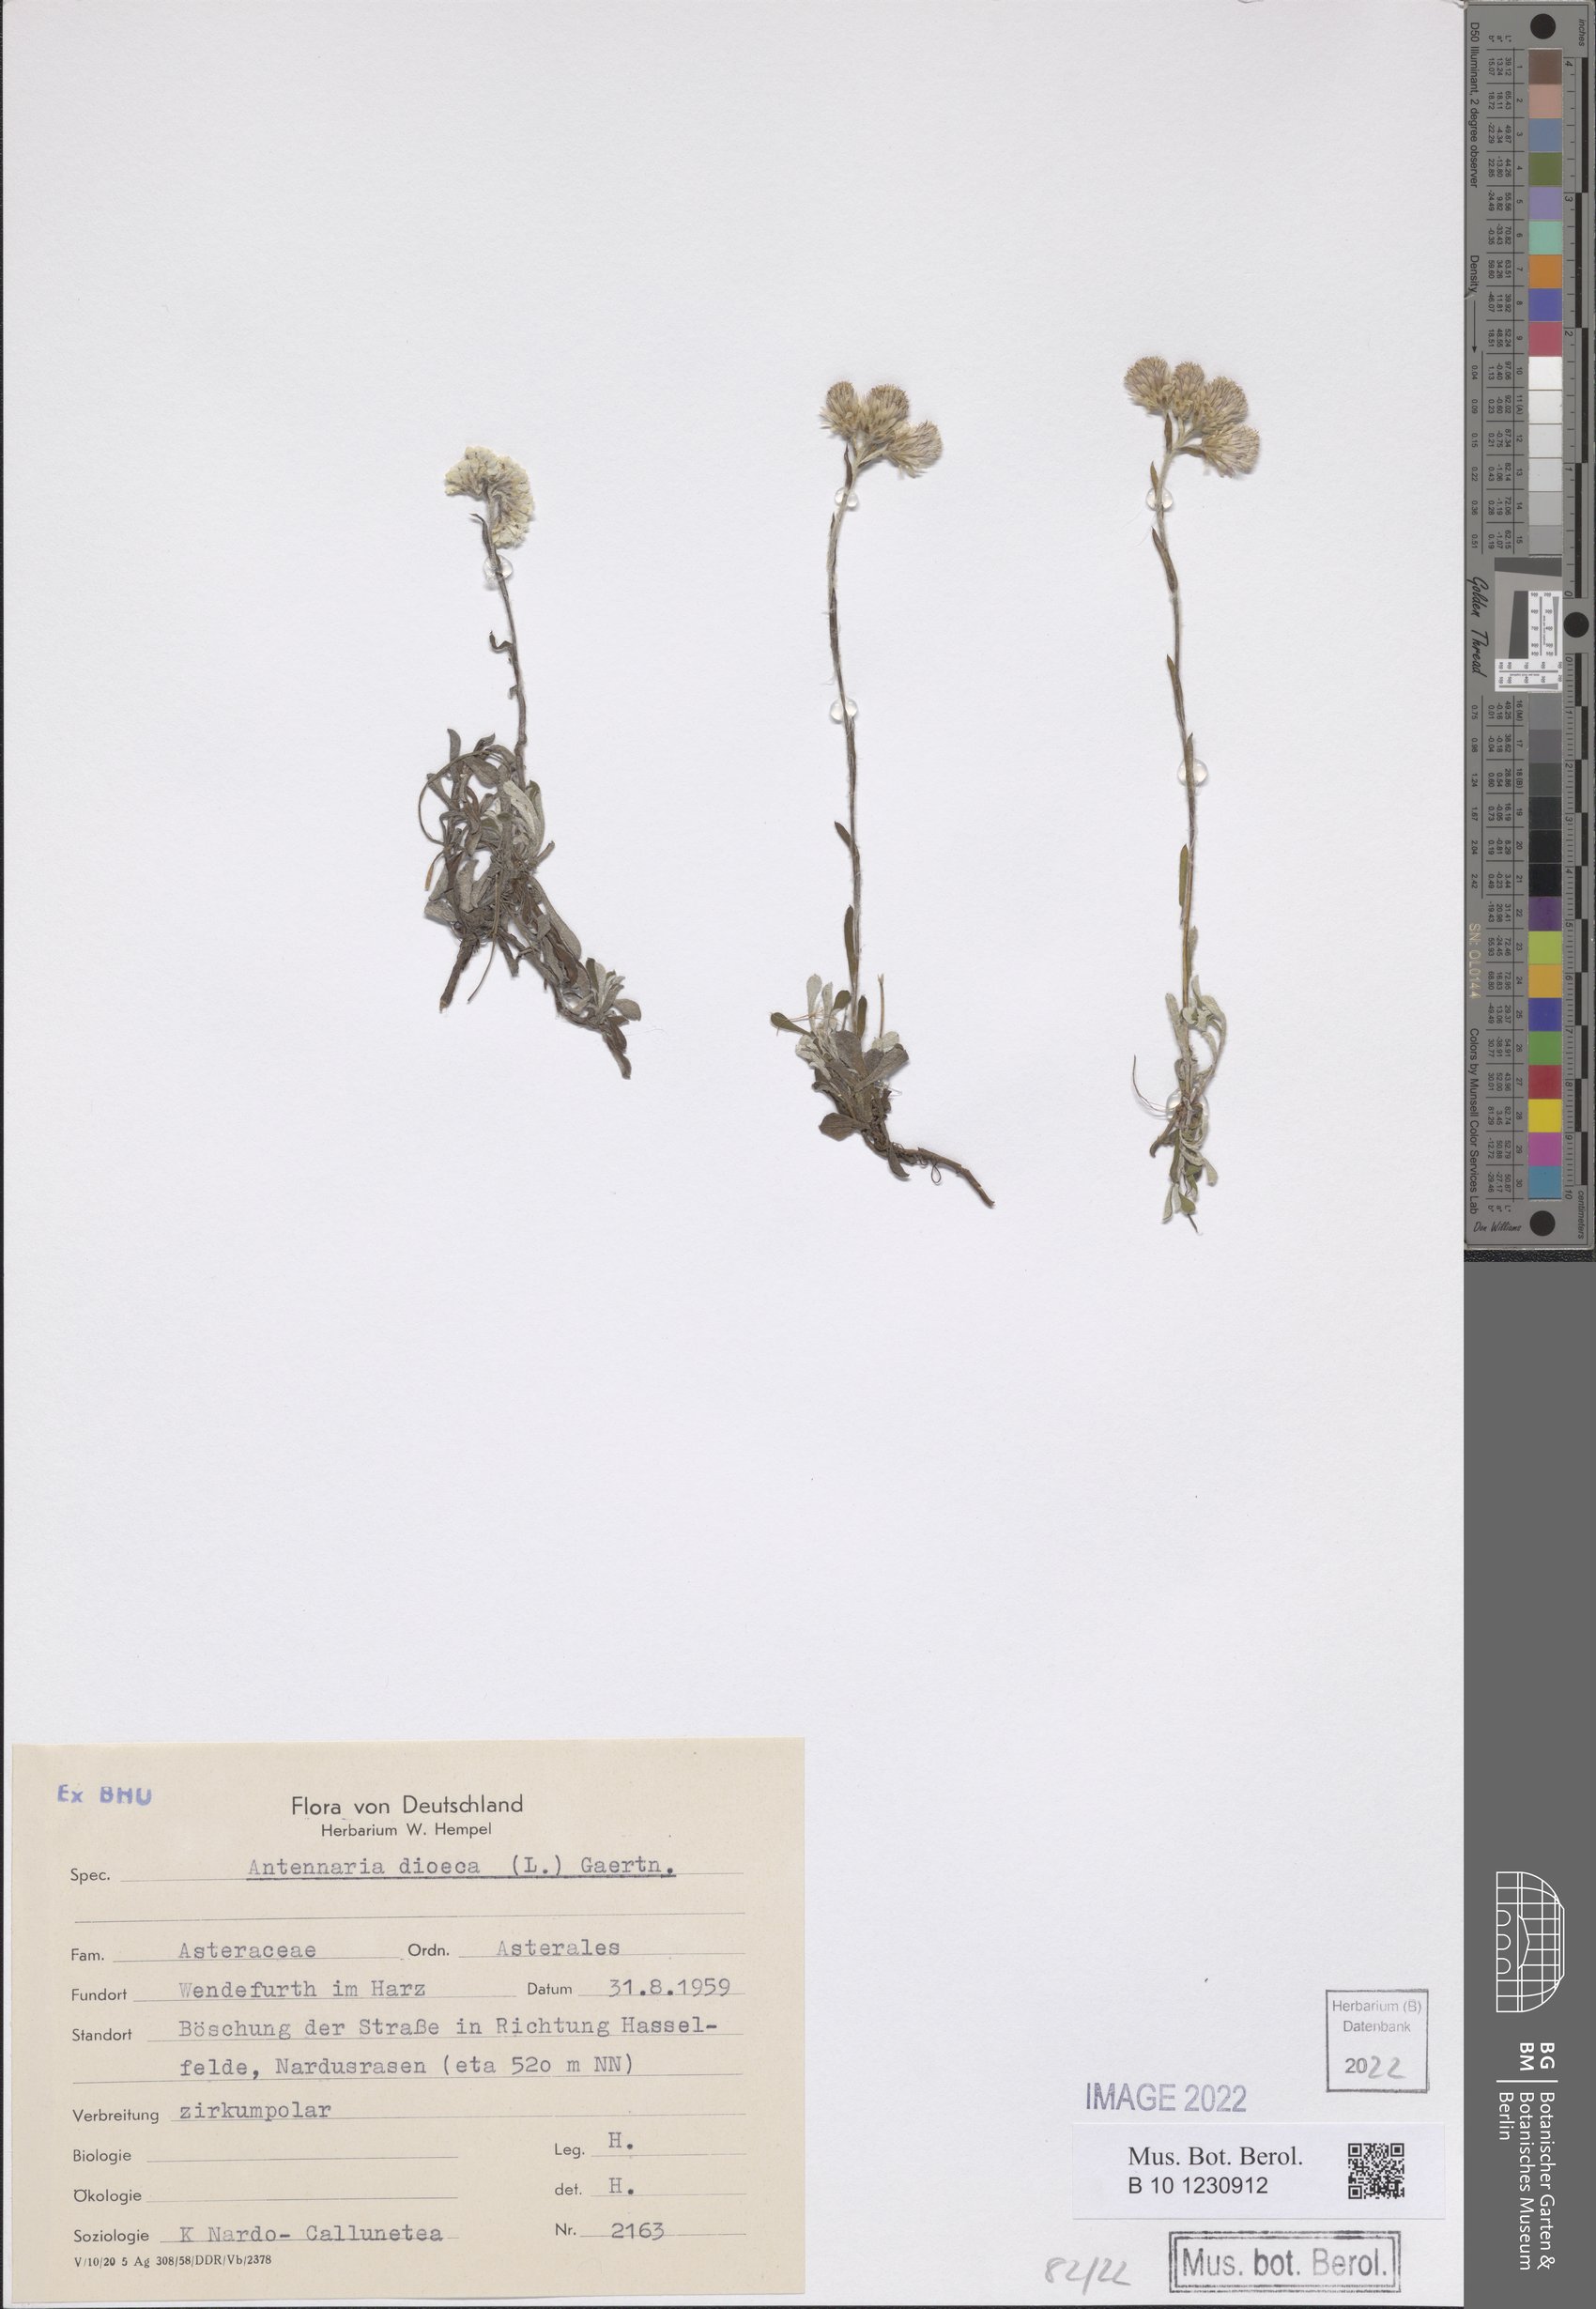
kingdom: Plantae
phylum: Tracheophyta
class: Magnoliopsida
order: Asterales
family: Asteraceae
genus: Antennaria
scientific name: Antennaria dioica
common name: Mountain everlasting
